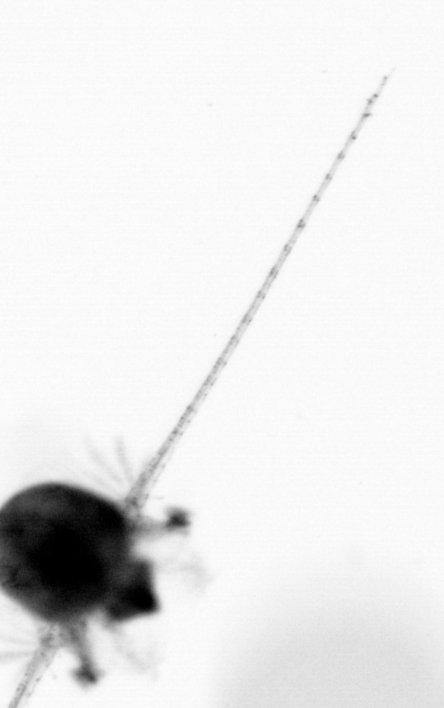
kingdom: Animalia
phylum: Arthropoda
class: Copepoda
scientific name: Copepoda
